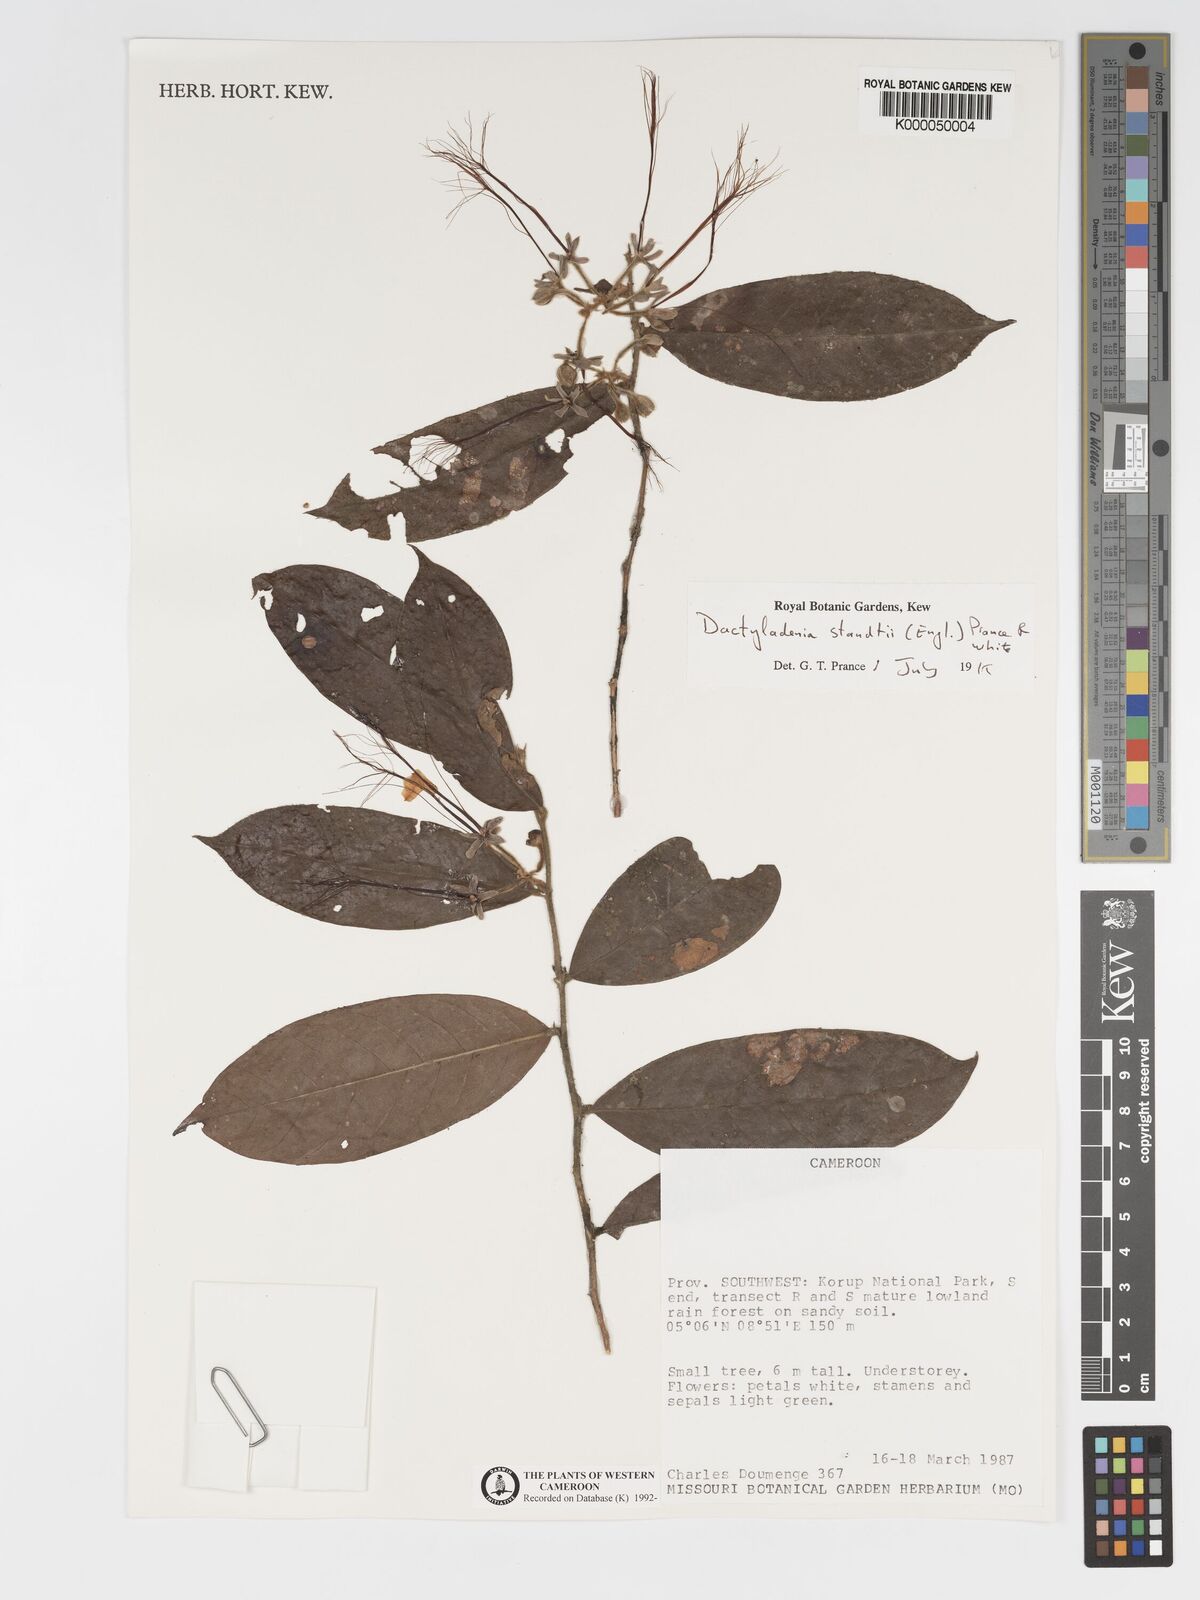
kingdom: Plantae
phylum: Tracheophyta
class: Magnoliopsida
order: Malpighiales
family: Chrysobalanaceae
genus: Dactyladenia
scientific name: Dactyladenia staudtii
